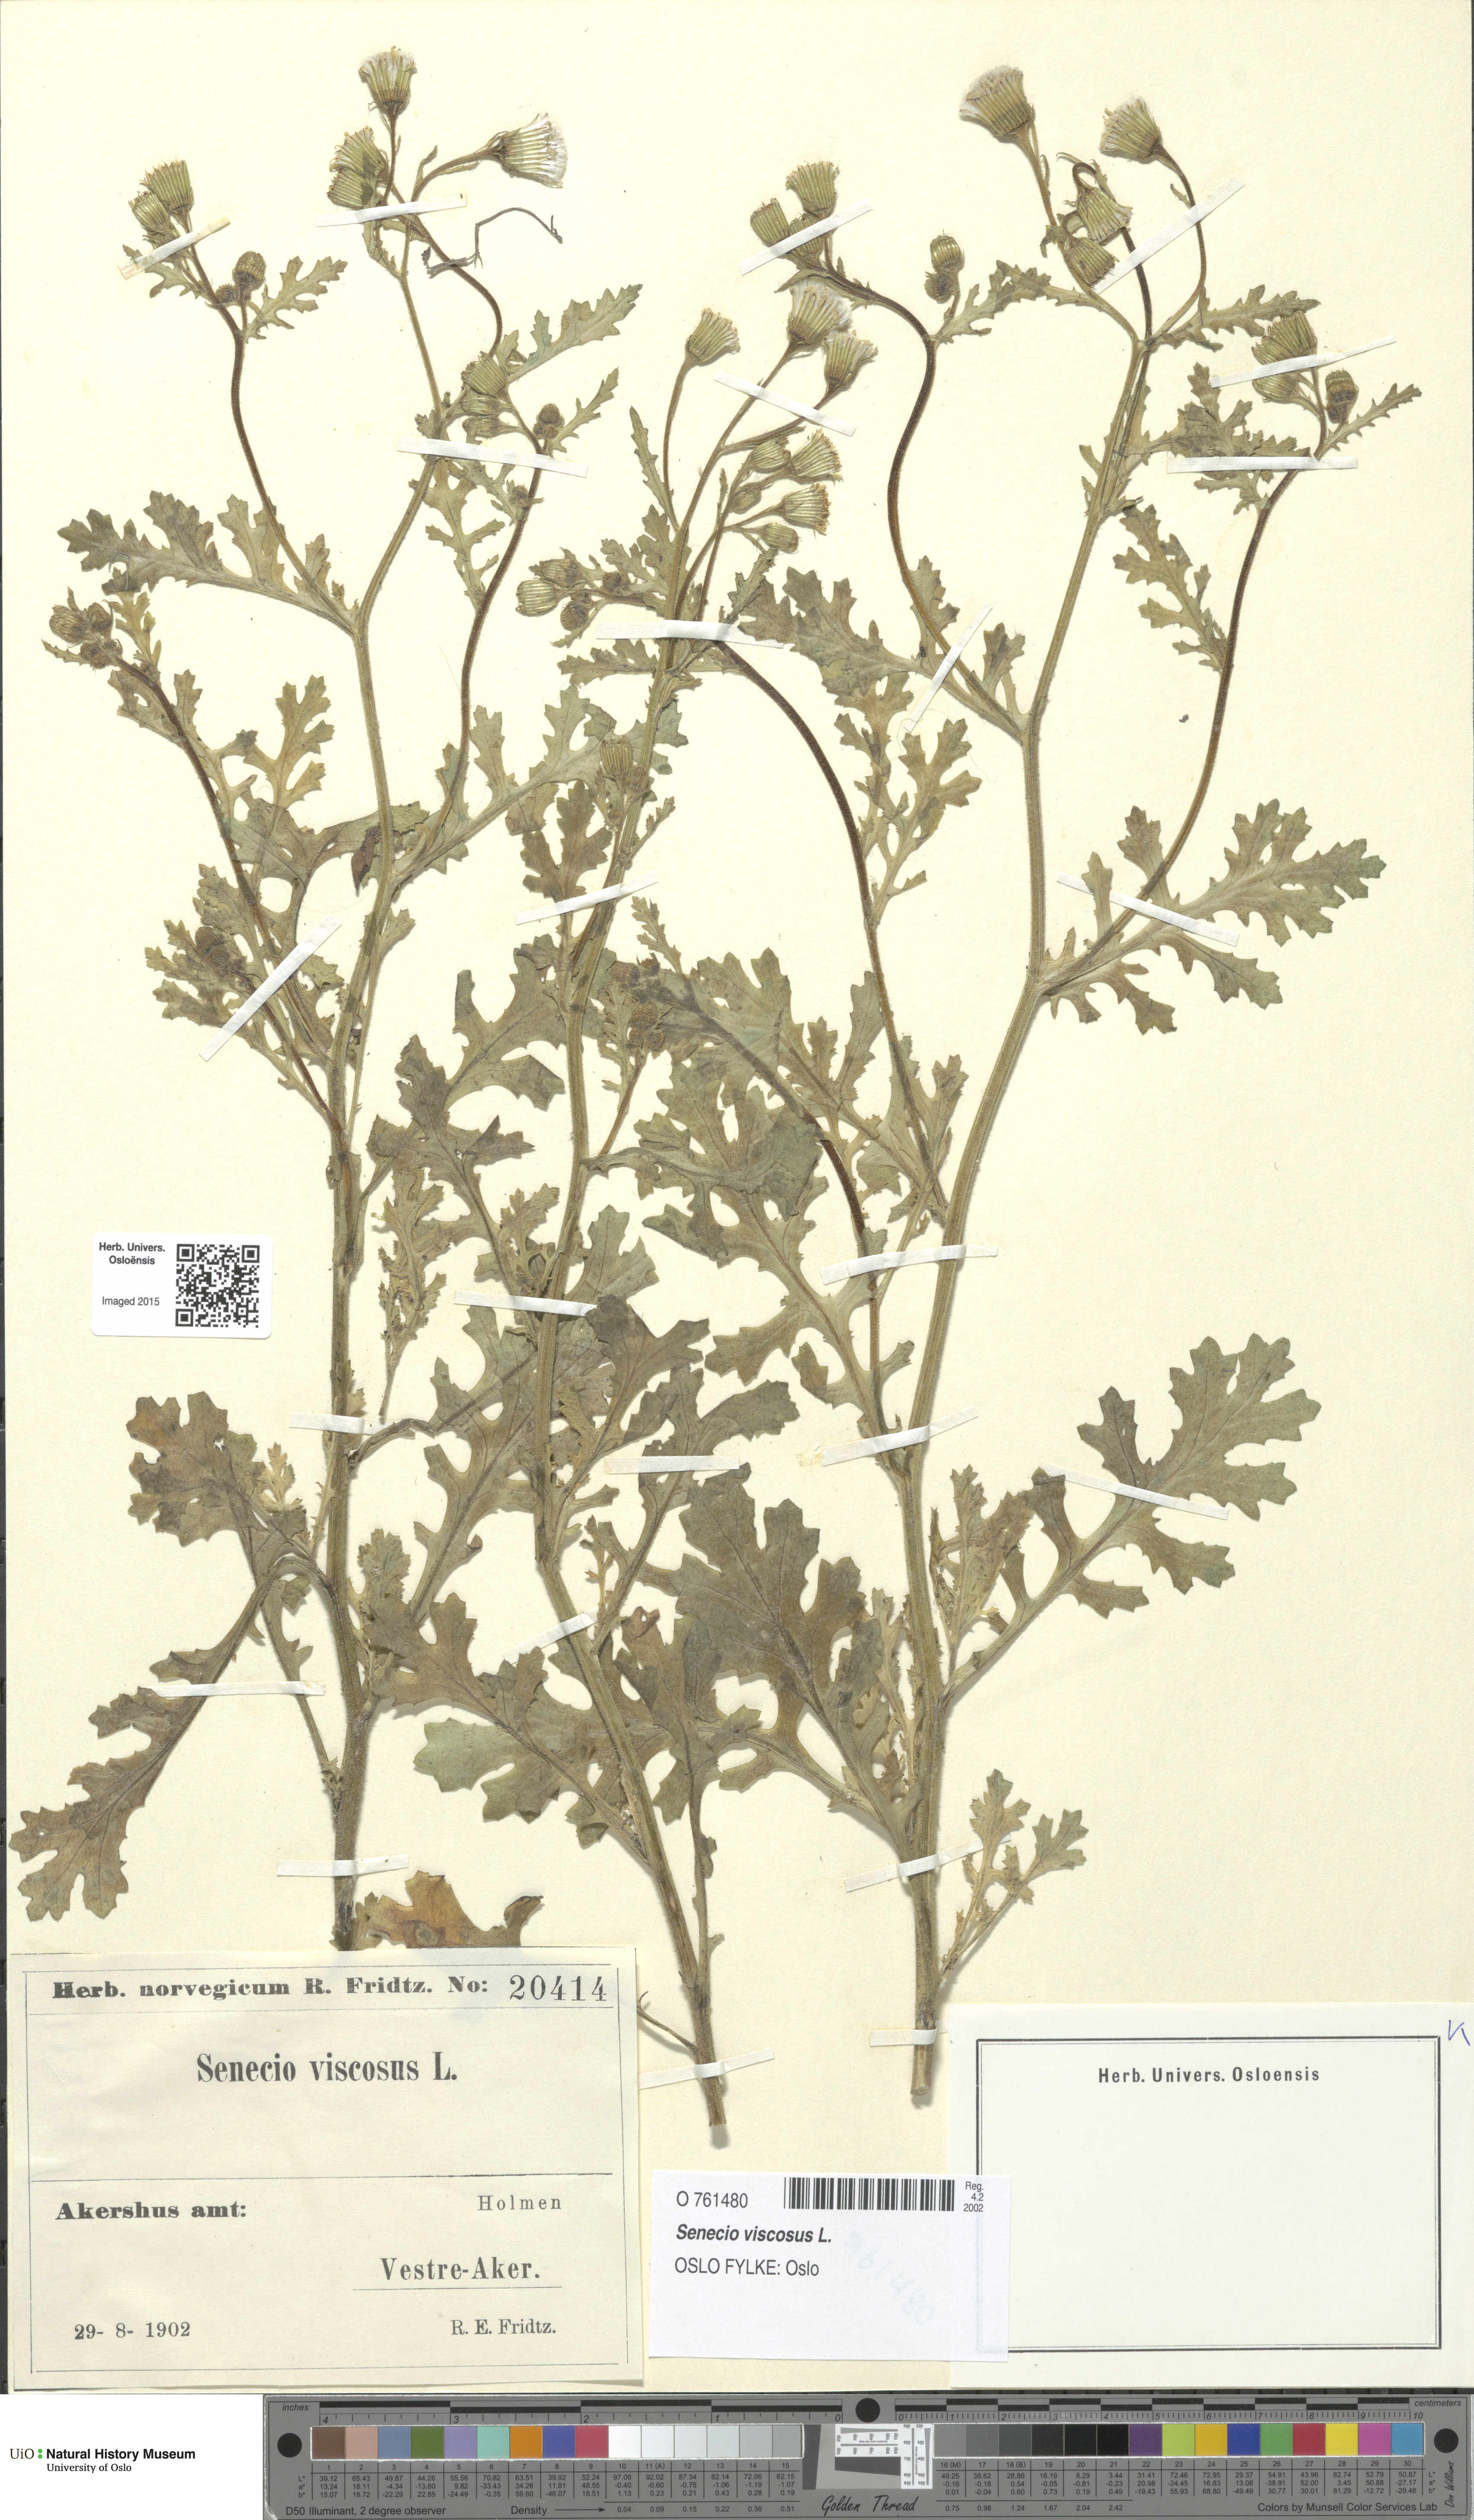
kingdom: Plantae
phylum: Tracheophyta
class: Magnoliopsida
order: Asterales
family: Asteraceae
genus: Senecio
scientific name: Senecio viscosus
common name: Sticky groundsel
